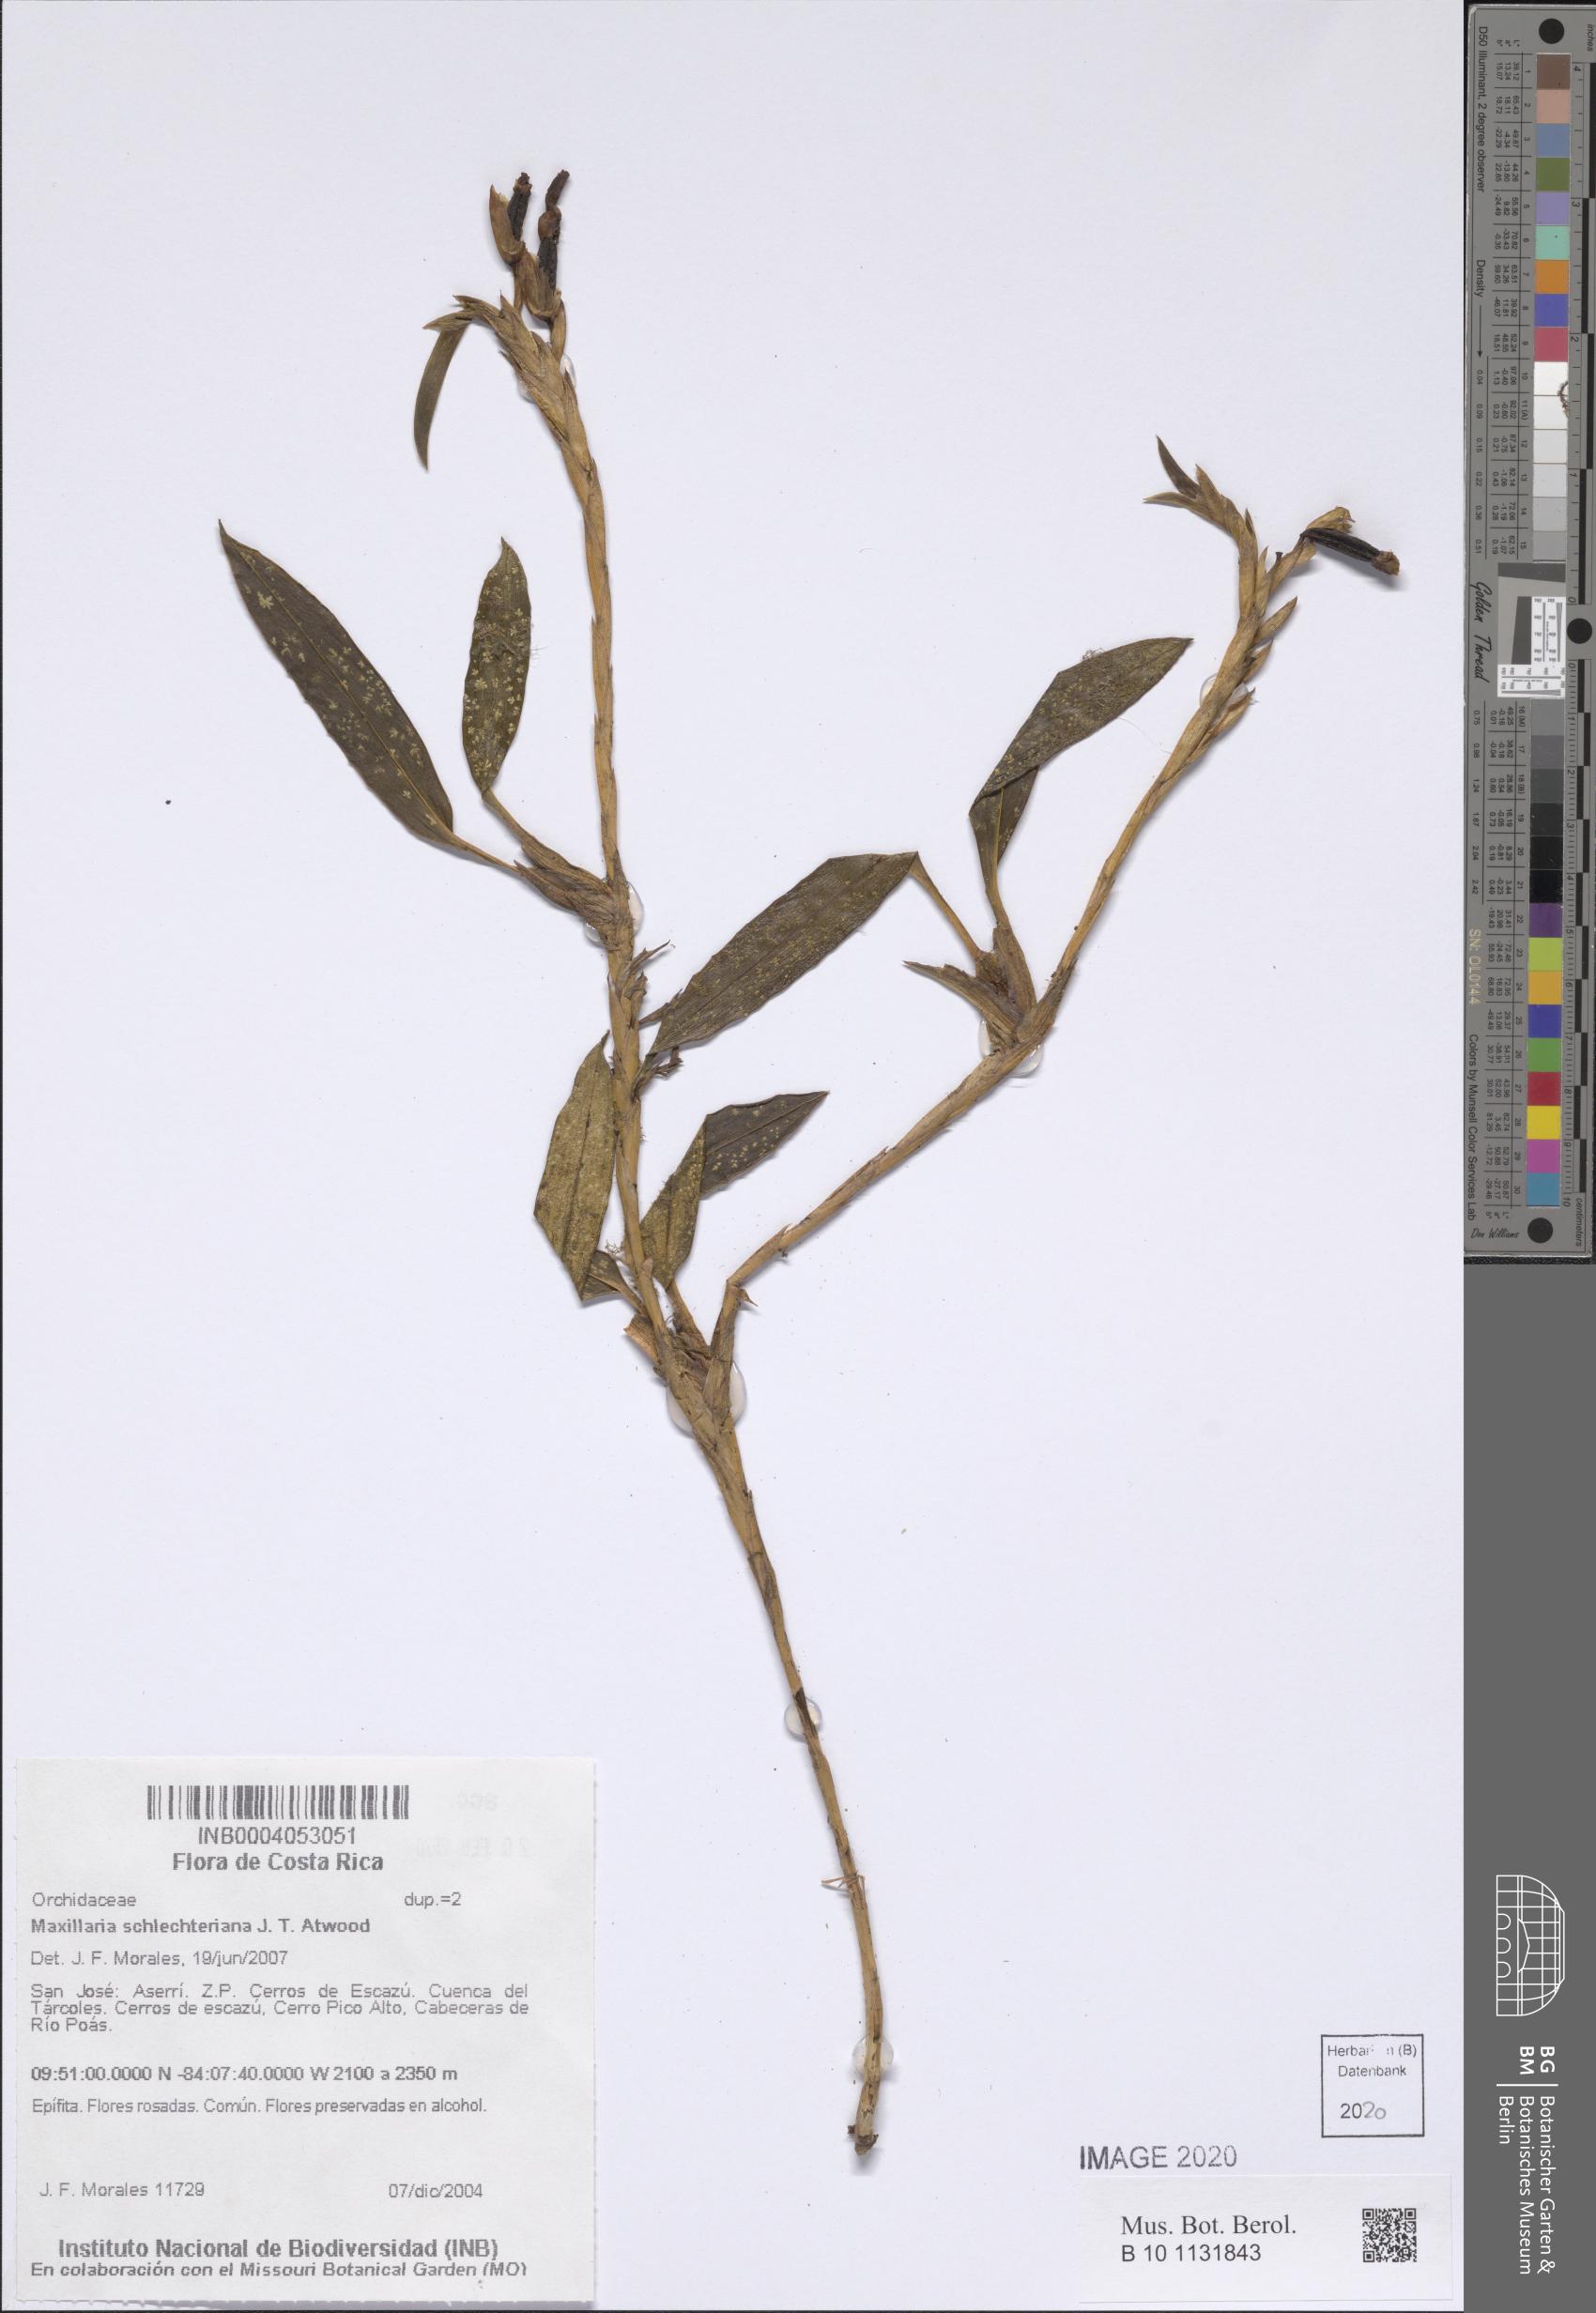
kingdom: Plantae
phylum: Tracheophyta
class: Liliopsida
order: Asparagales
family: Orchidaceae
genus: Maxillaria
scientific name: Maxillaria schlechteriana
